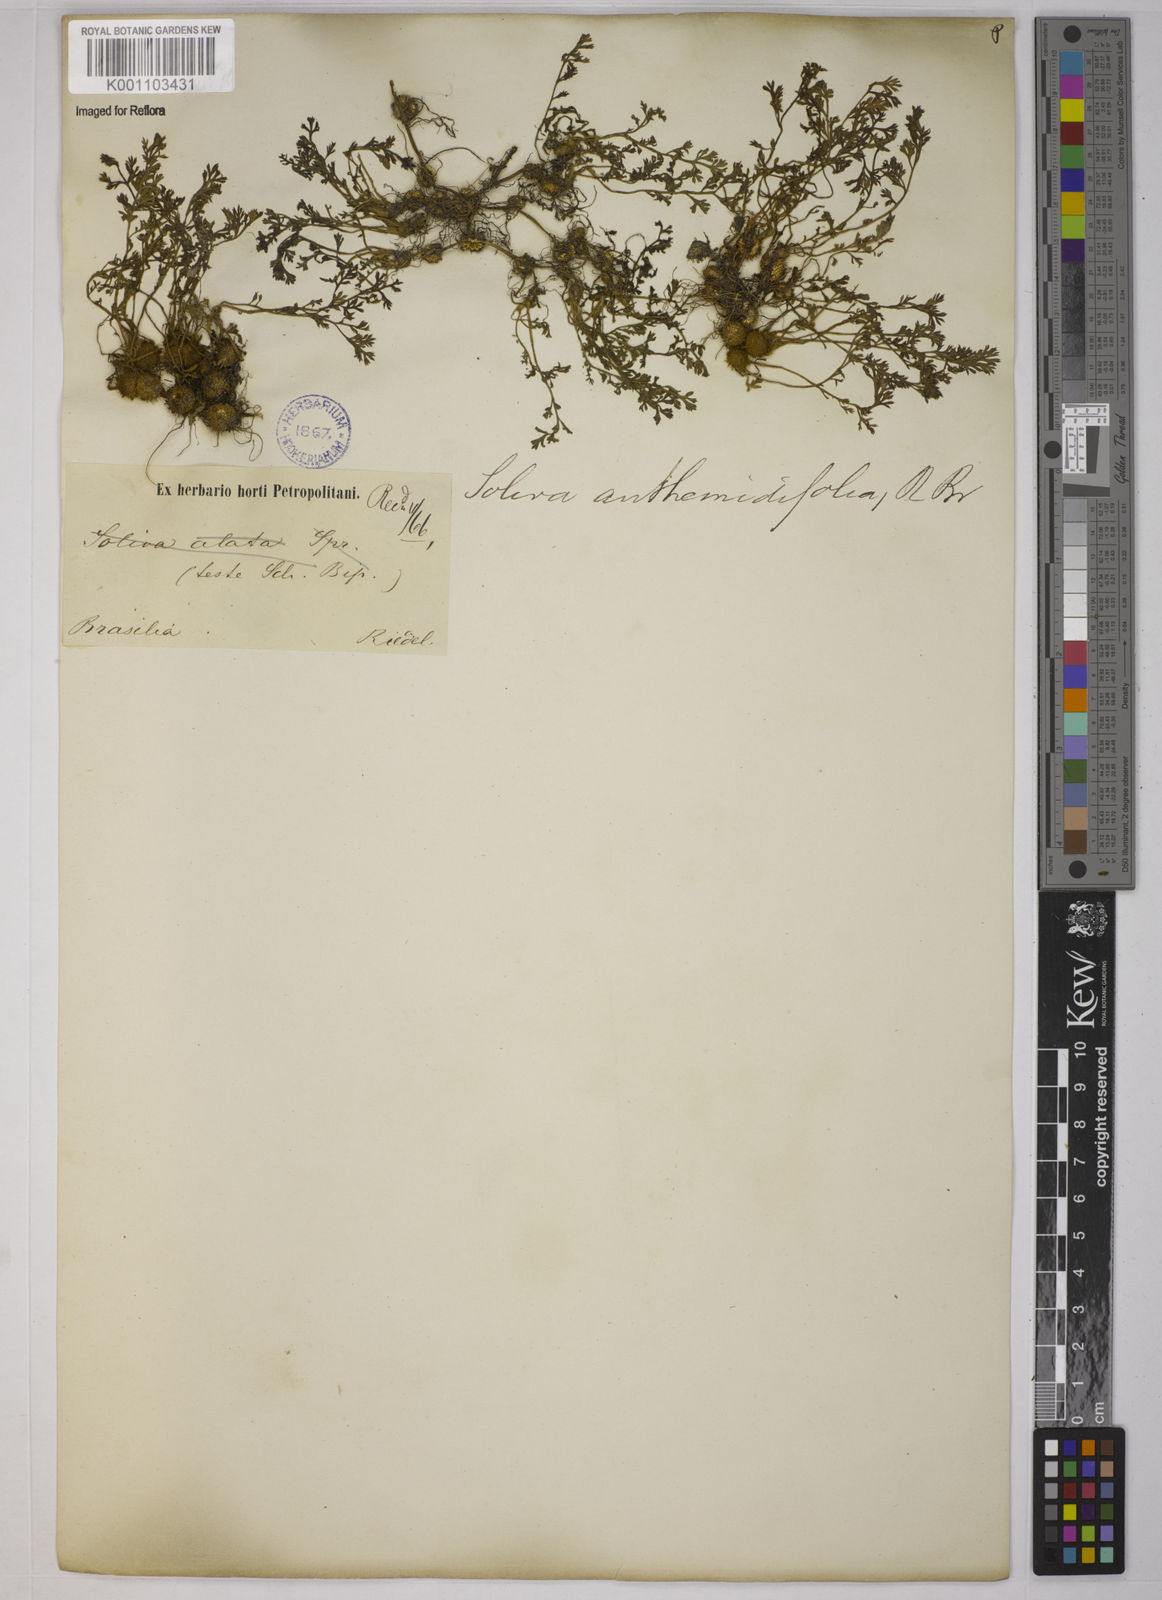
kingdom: Plantae
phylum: Tracheophyta
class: Magnoliopsida
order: Asterales
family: Asteraceae
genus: Soliva
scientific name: Soliva
